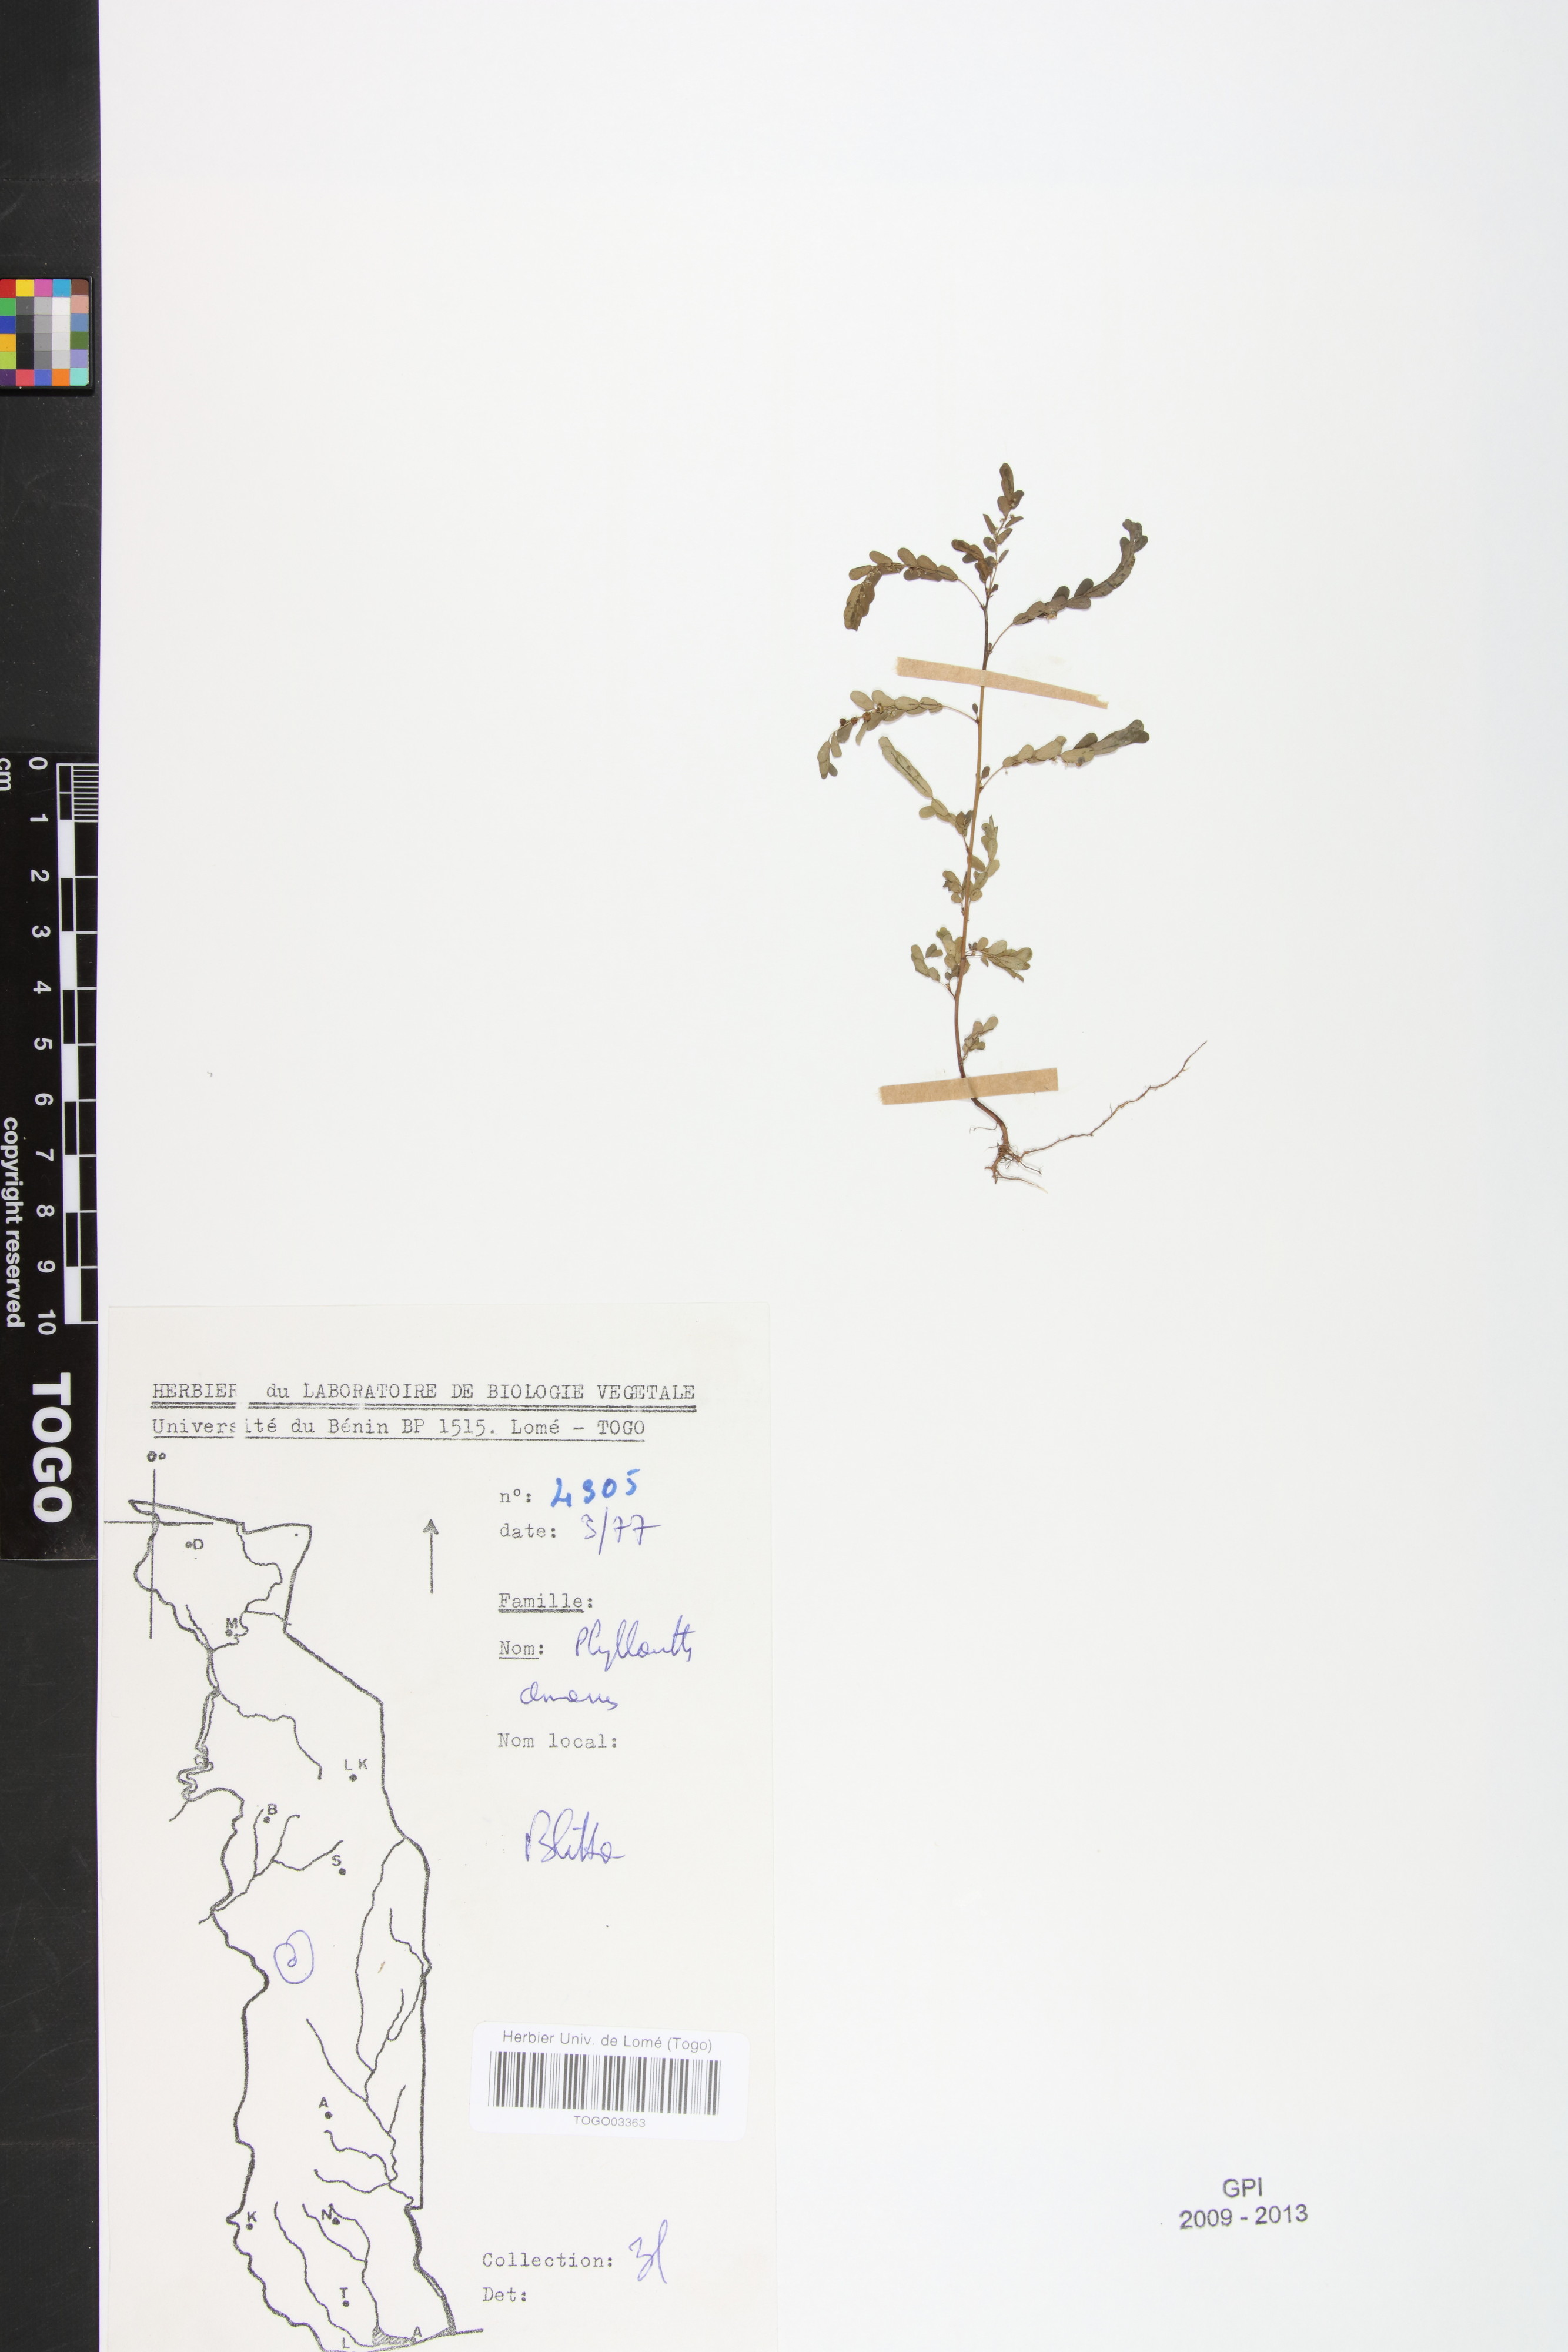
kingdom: Plantae
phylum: Tracheophyta
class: Magnoliopsida
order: Malpighiales
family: Phyllanthaceae
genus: Phyllanthus
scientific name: Phyllanthus amarus
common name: Carry me seed
